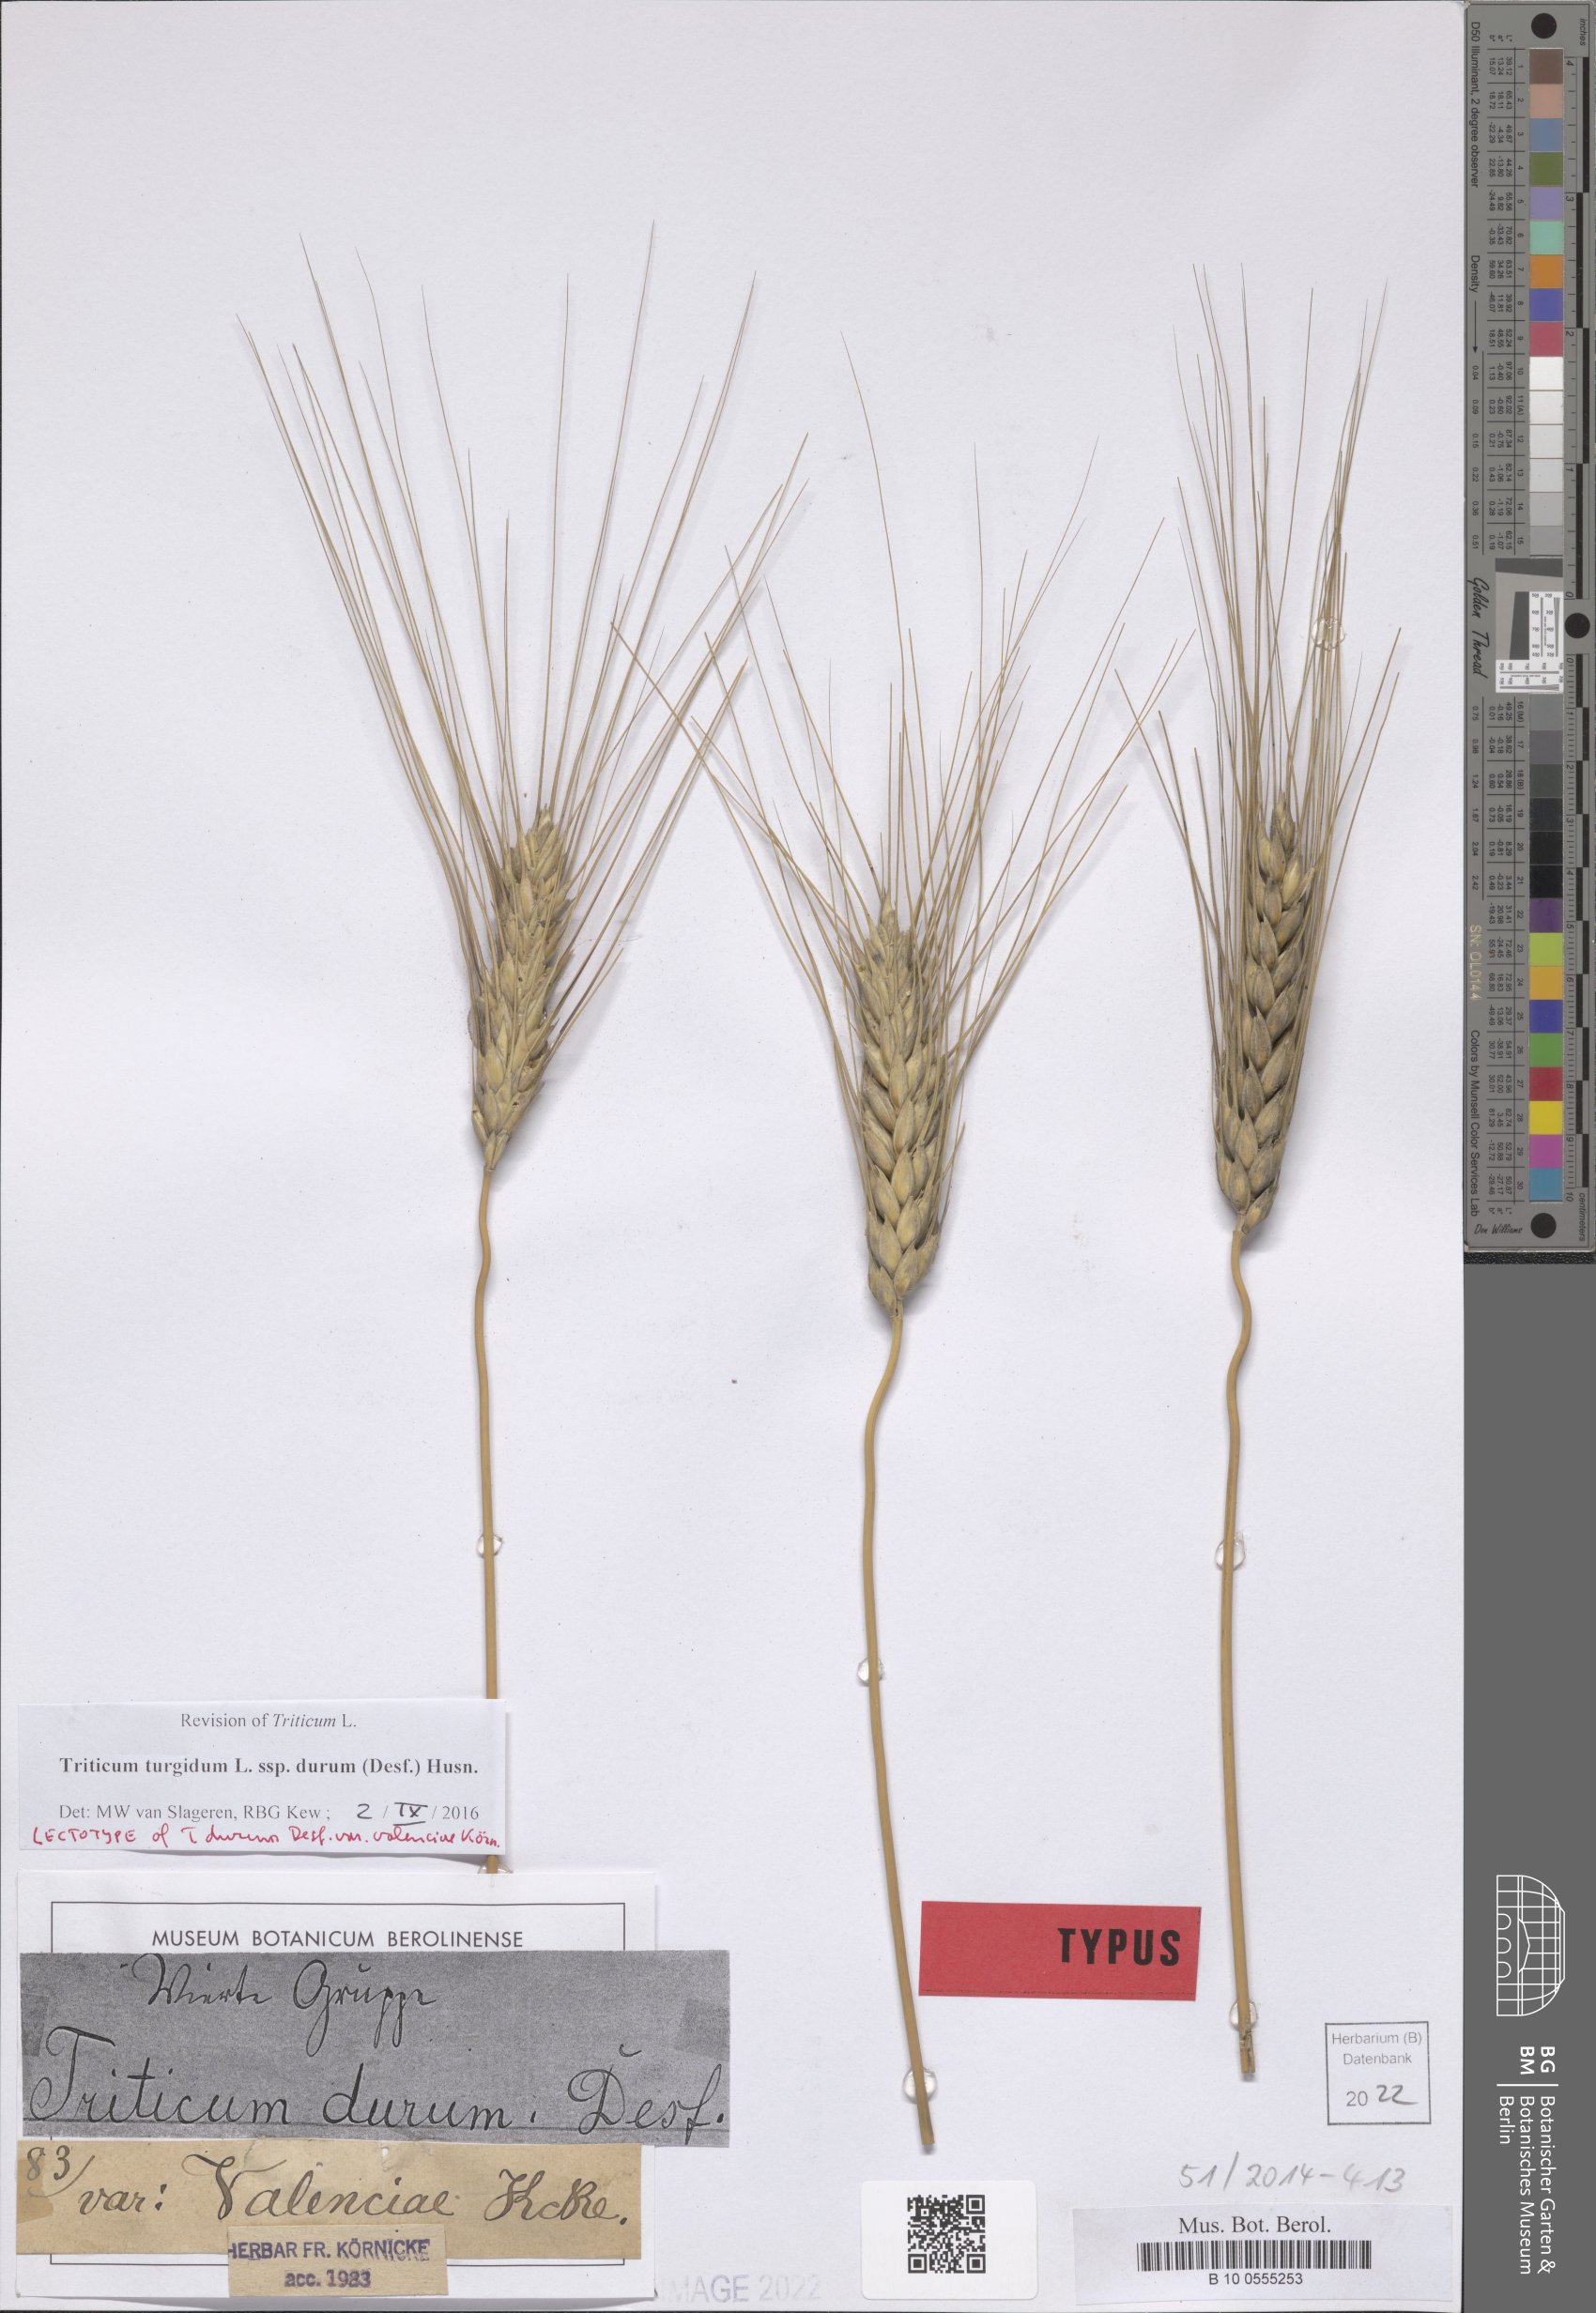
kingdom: Plantae
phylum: Tracheophyta
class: Liliopsida
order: Poales
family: Poaceae
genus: Triticum
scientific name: Triticum turgidum
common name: Rivet wheat
